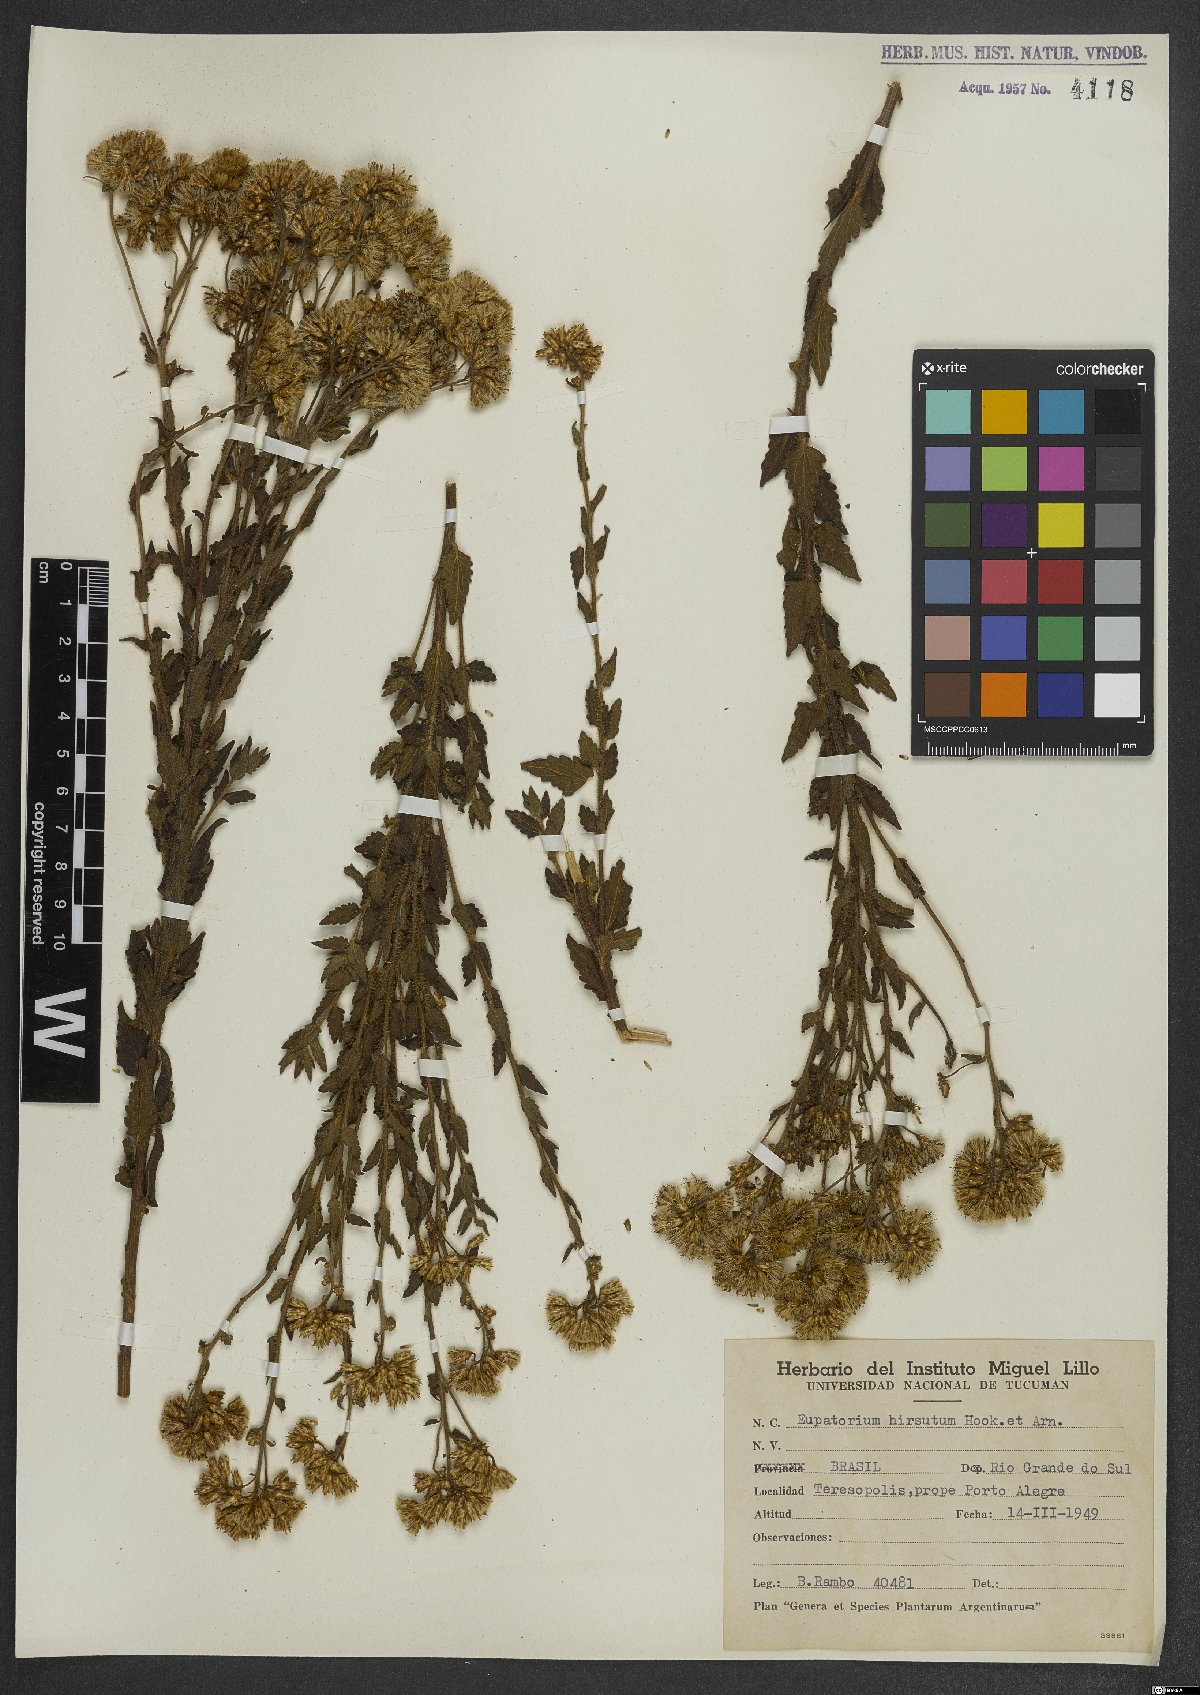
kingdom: Plantae
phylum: Tracheophyta
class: Magnoliopsida
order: Asterales
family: Asteraceae
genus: Campuloclinium
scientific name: Campuloclinium hirsutum
